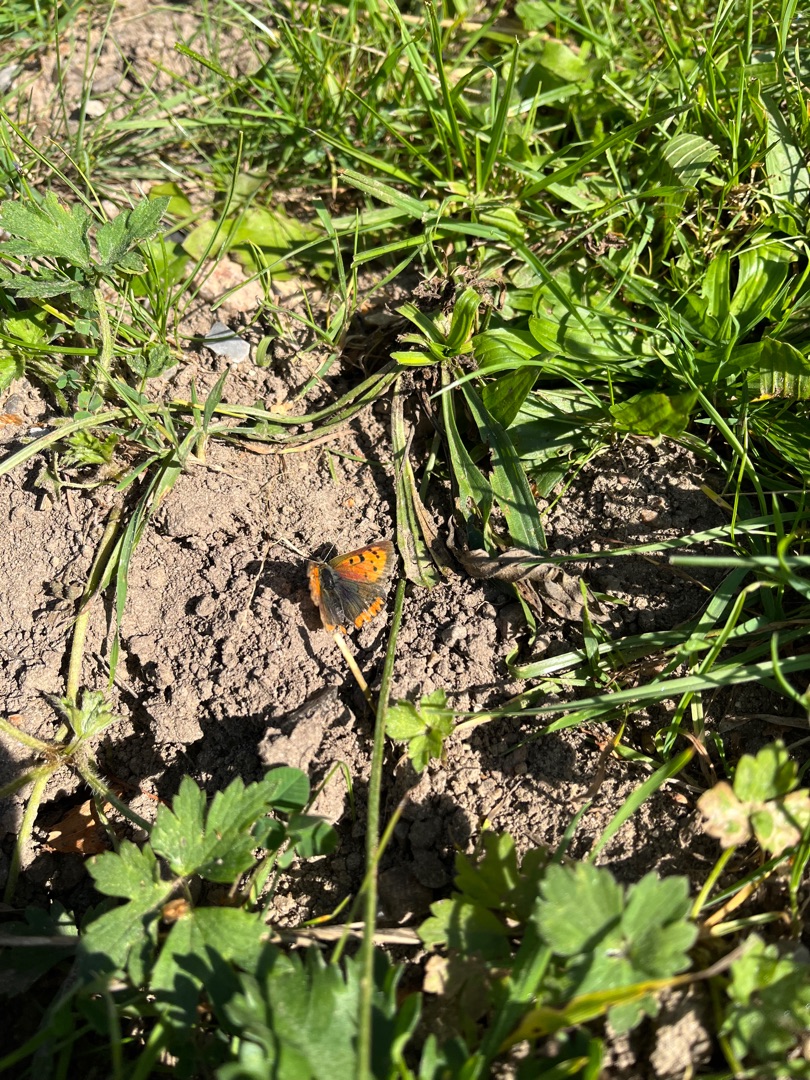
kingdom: Animalia
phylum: Arthropoda
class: Insecta
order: Lepidoptera
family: Lycaenidae
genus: Lycaena
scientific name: Lycaena phlaeas
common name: Lille ildfugl
